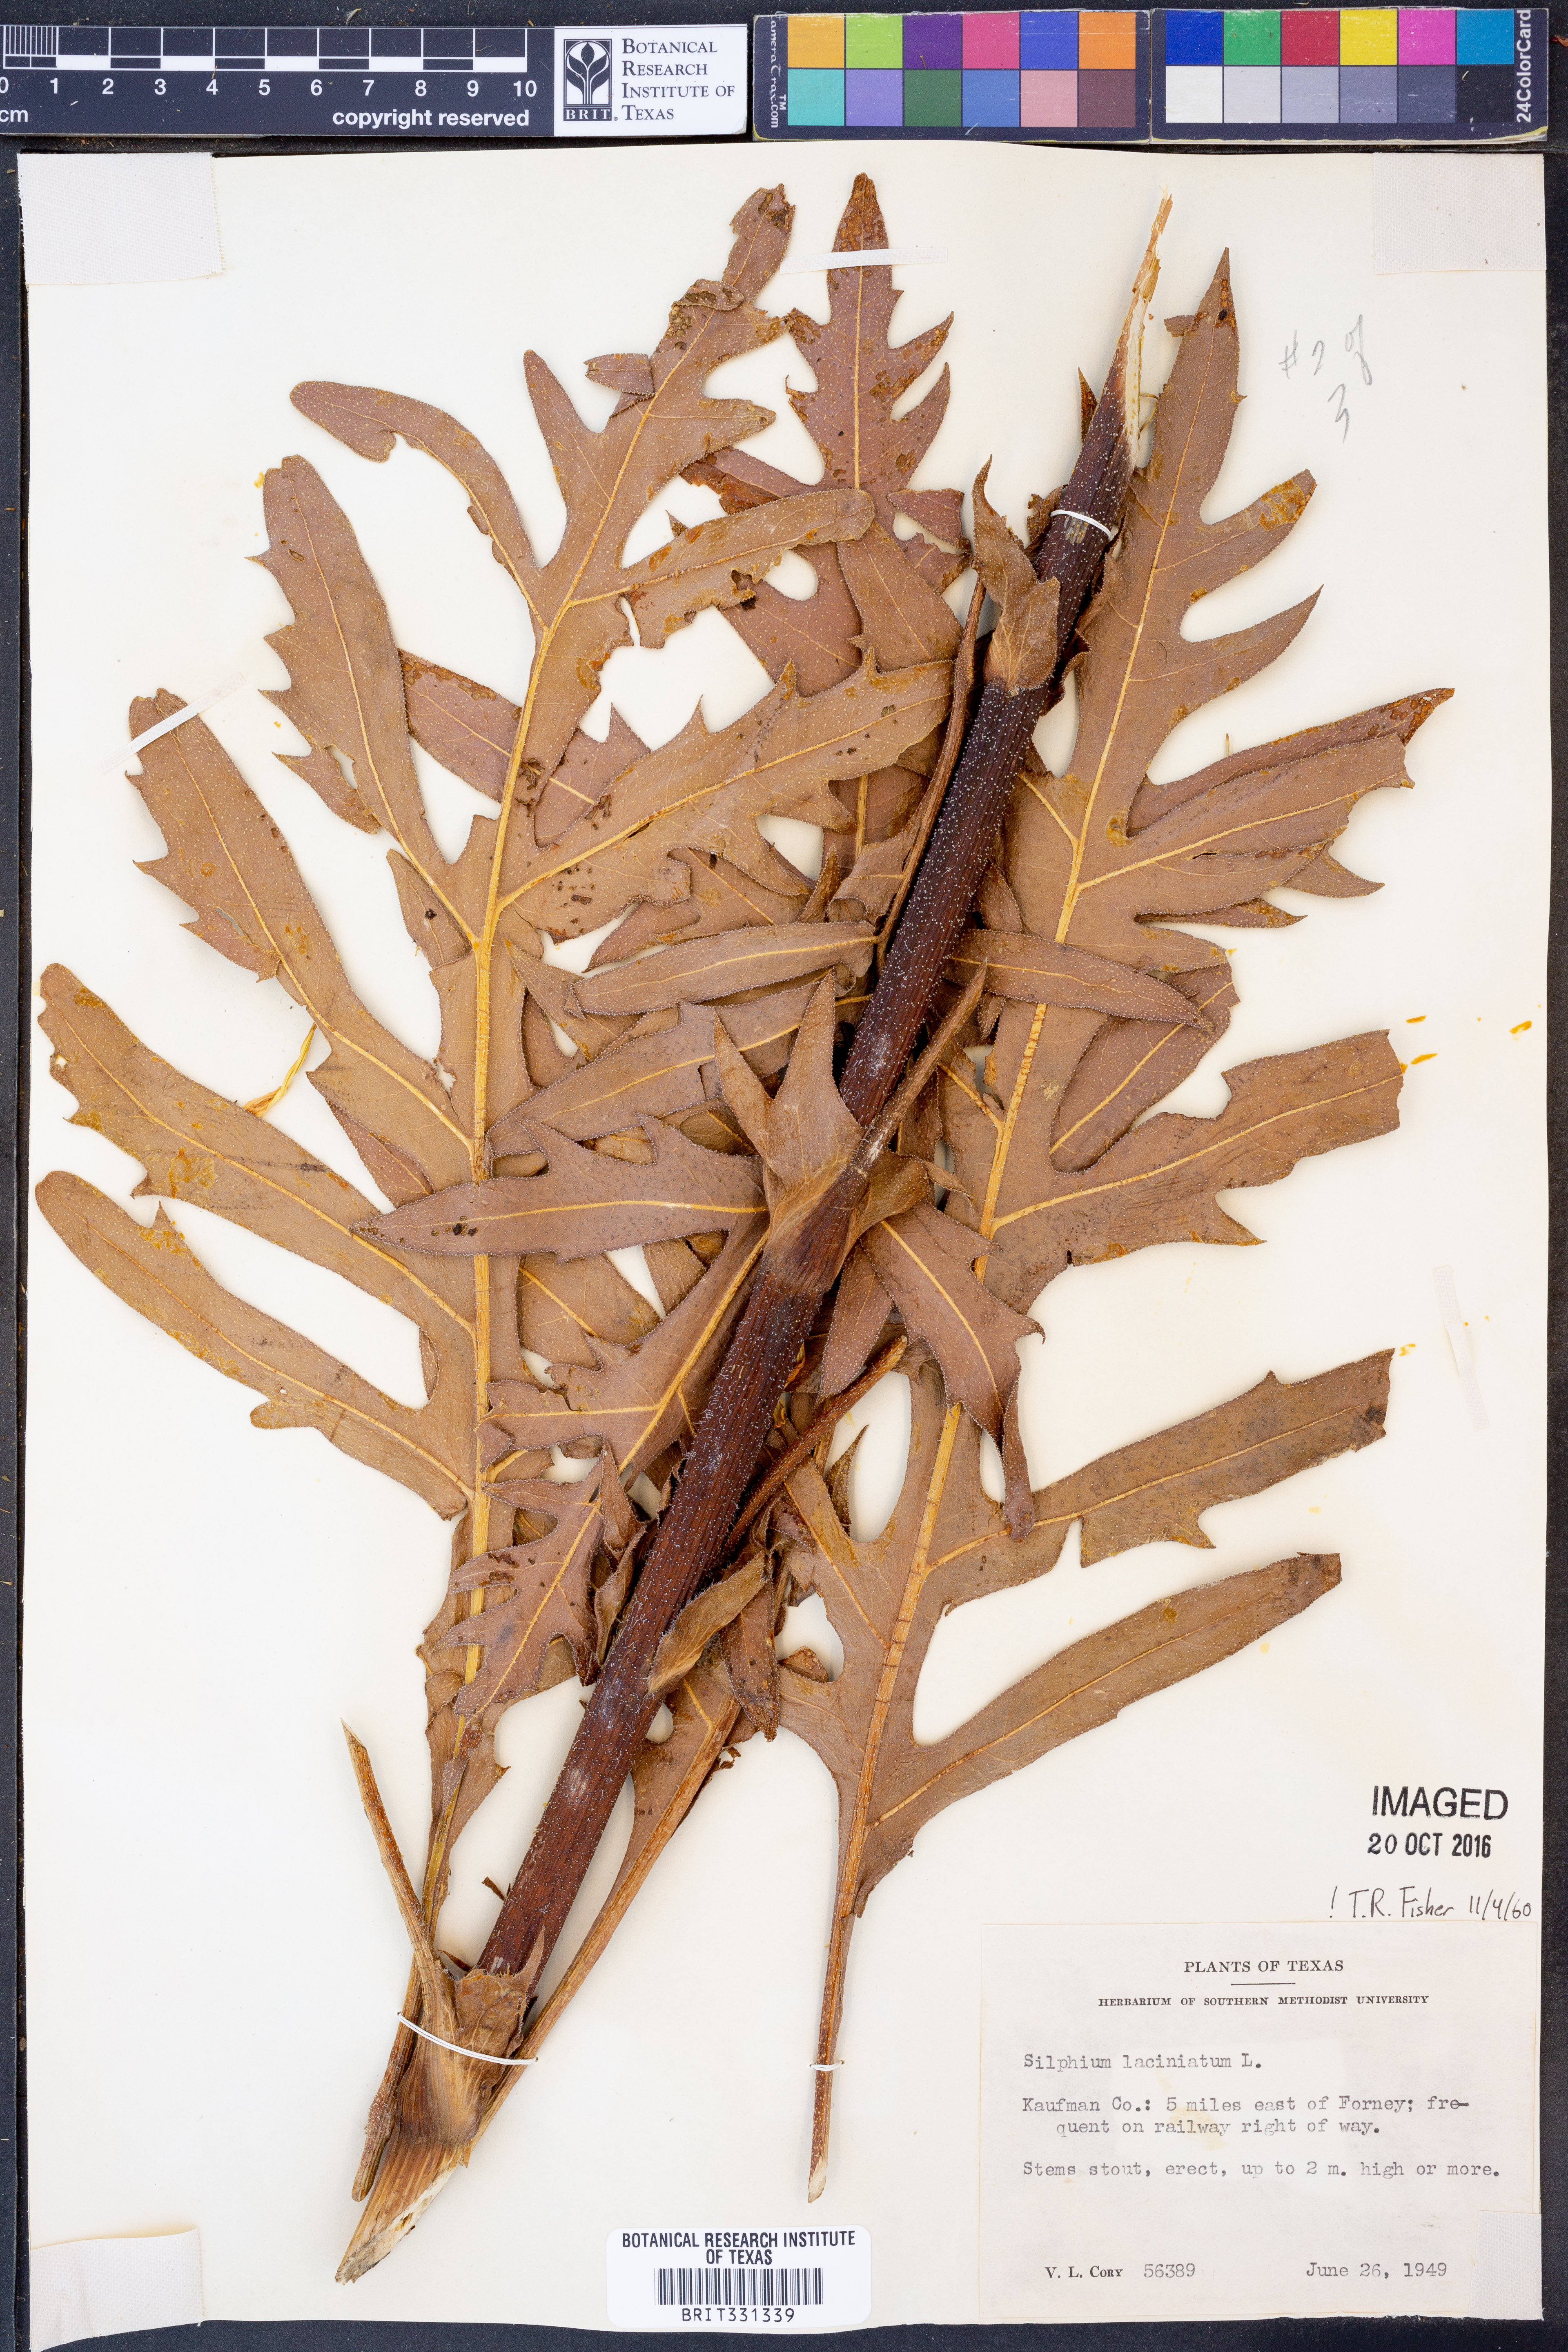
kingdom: Plantae
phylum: Tracheophyta
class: Magnoliopsida
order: Asterales
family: Asteraceae
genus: Silphium
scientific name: Silphium laciniatum
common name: Polarplant
